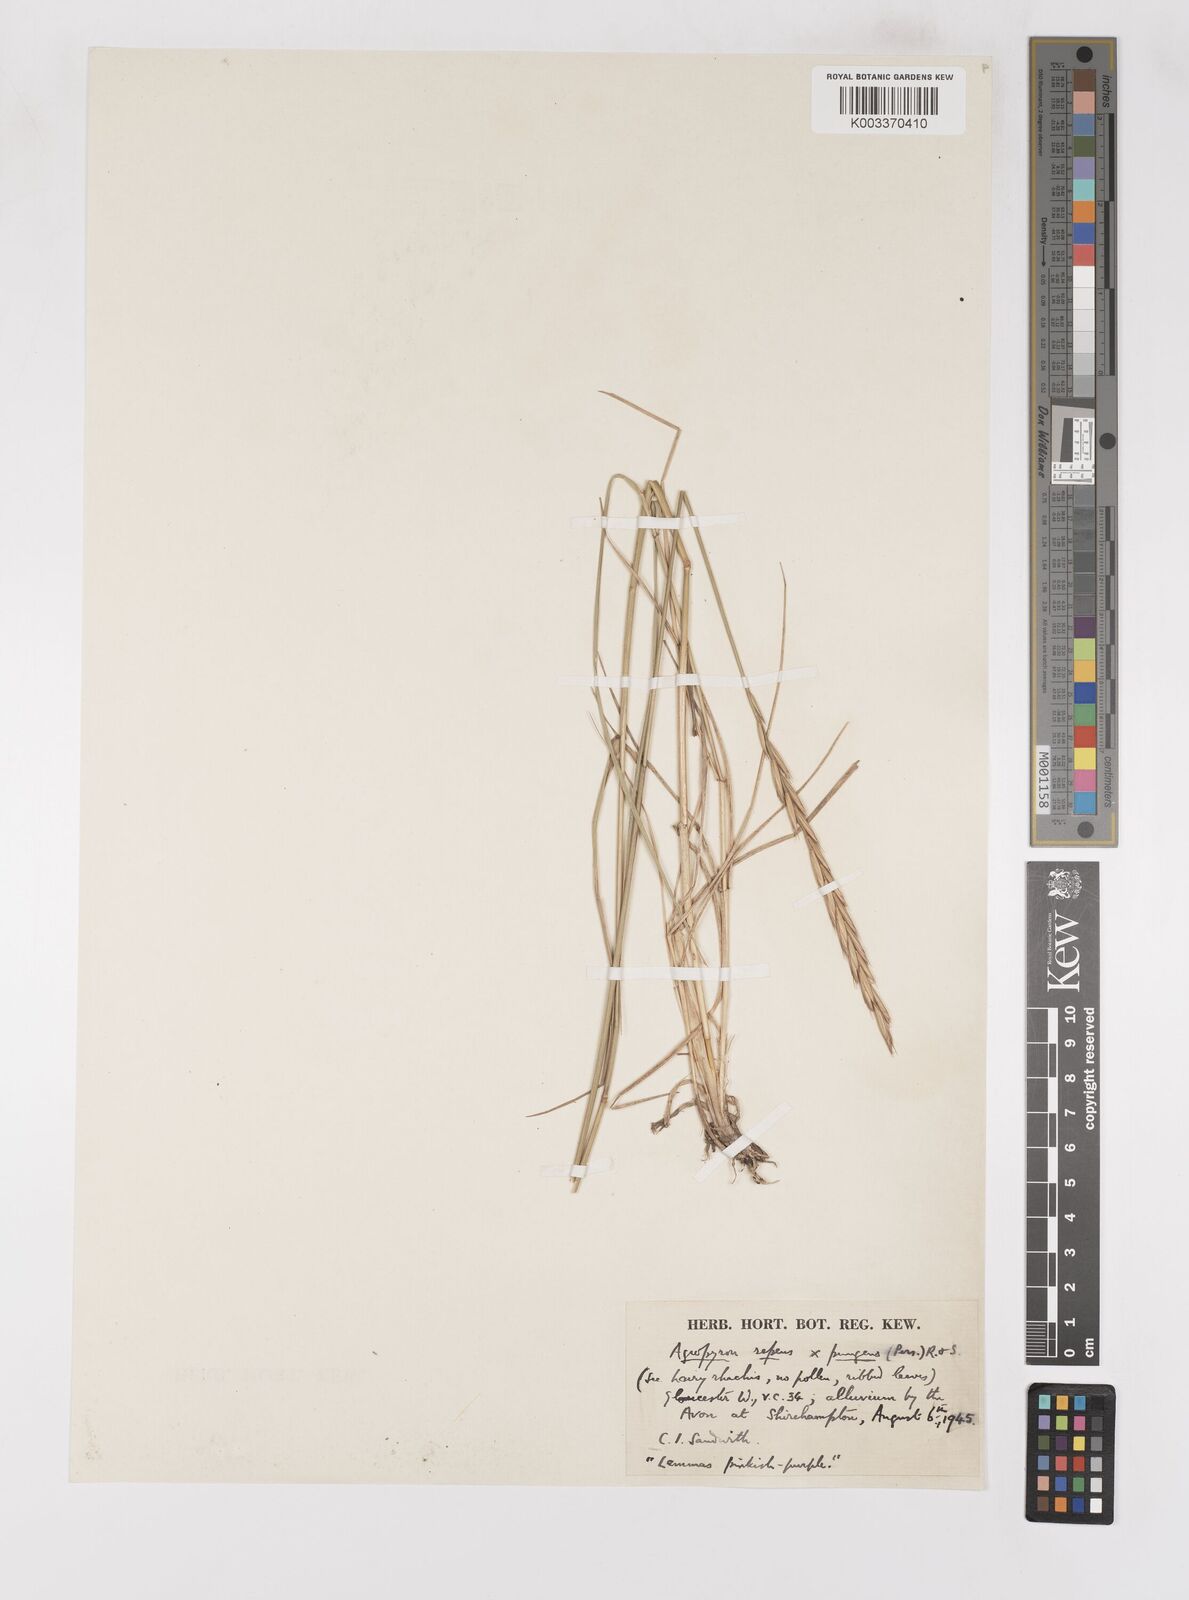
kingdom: Plantae
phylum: Tracheophyta
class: Liliopsida
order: Poales
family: Poaceae
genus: Elymus
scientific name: Elymus oliveri
